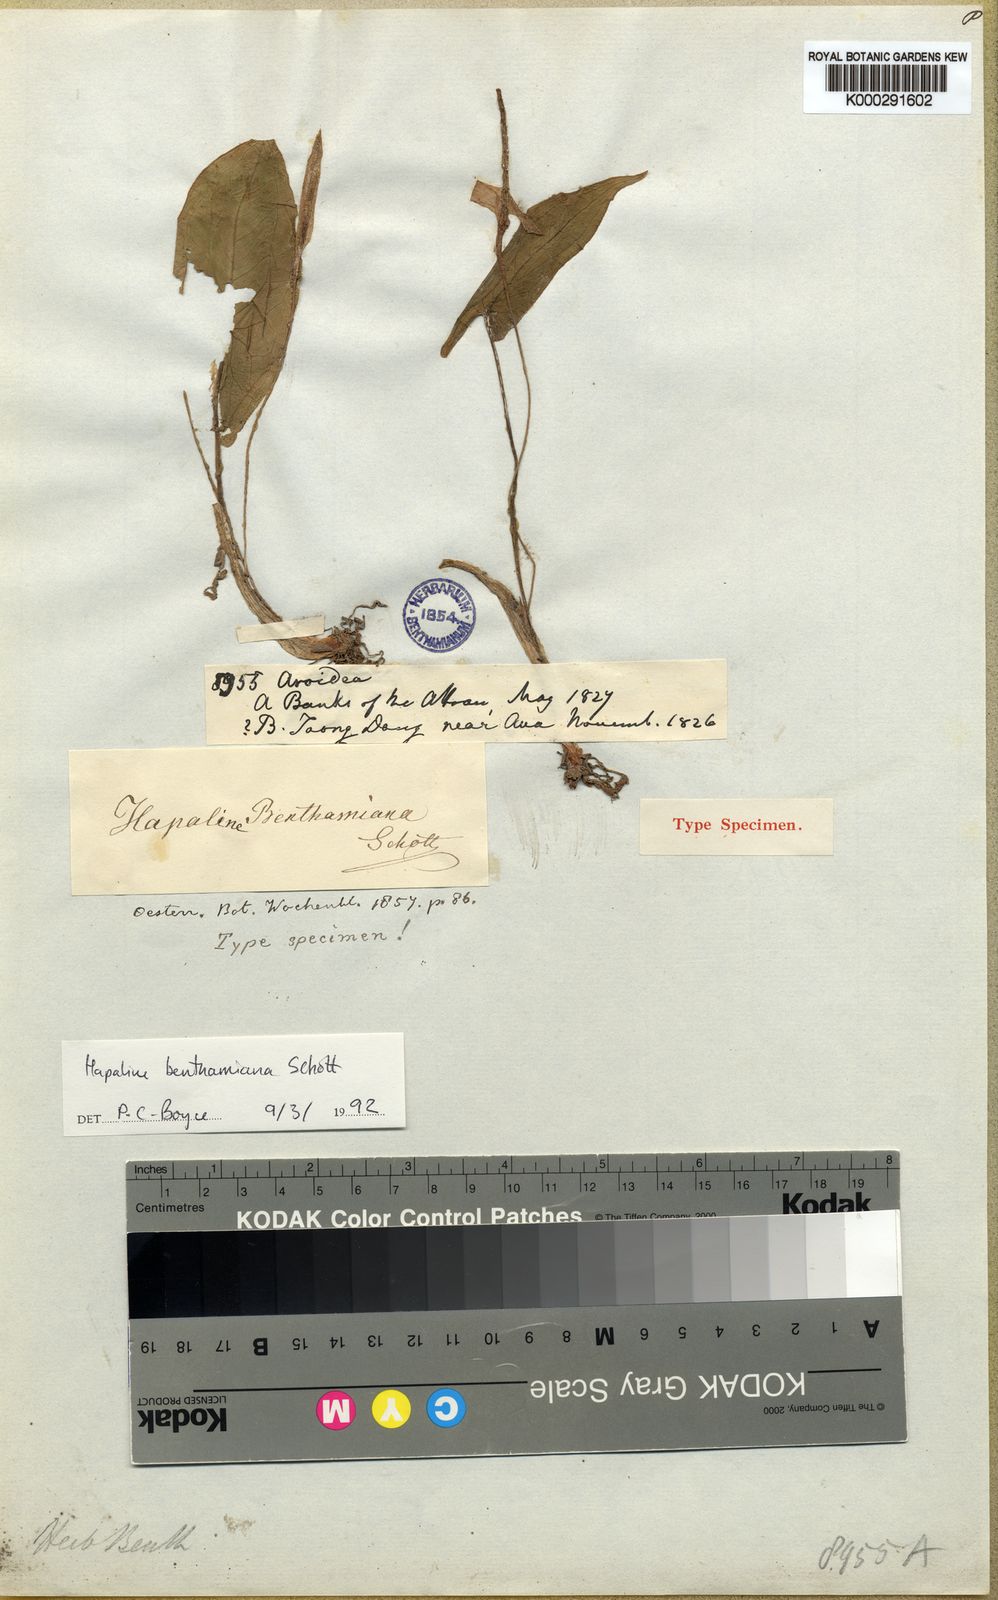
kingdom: Plantae
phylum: Tracheophyta
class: Liliopsida
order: Alismatales
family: Araceae
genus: Hapaline
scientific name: Hapaline benthamiana
